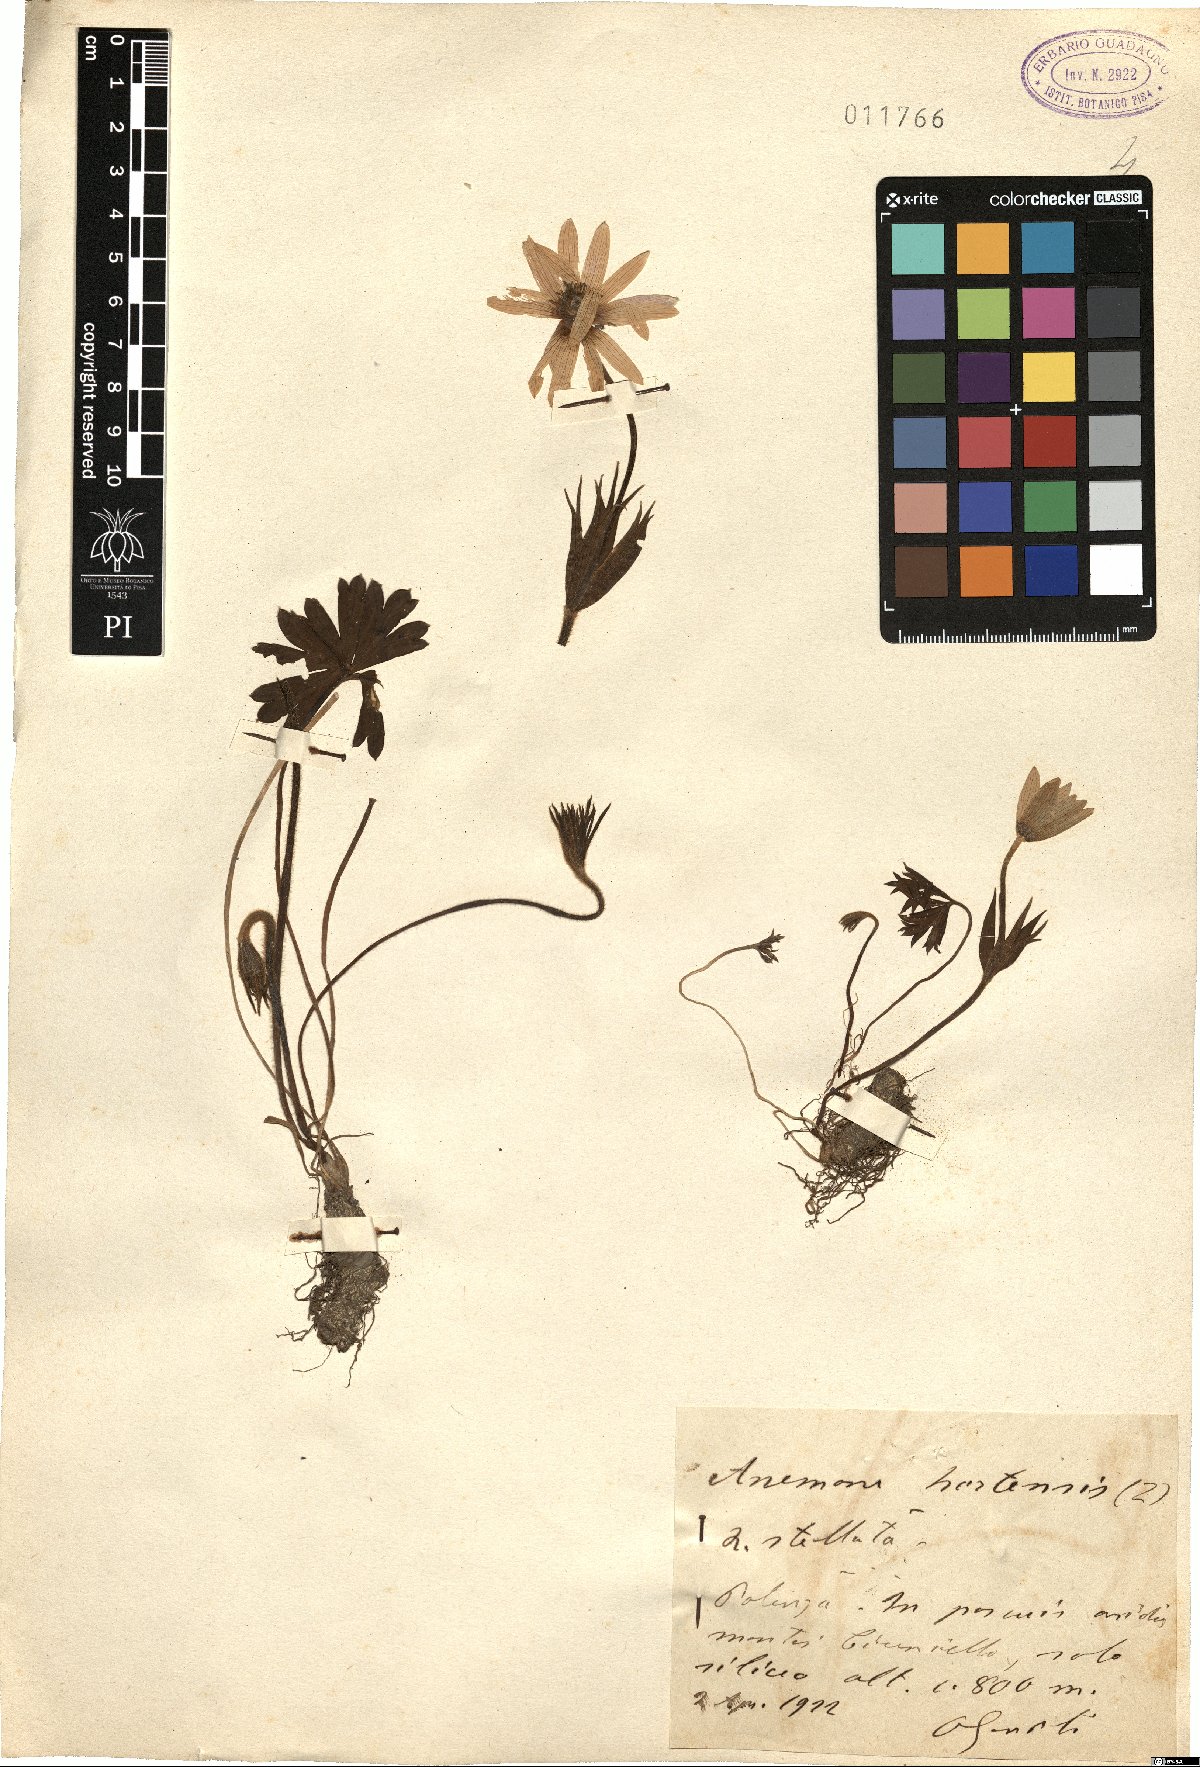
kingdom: Plantae
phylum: Tracheophyta
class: Magnoliopsida
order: Ranunculales
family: Ranunculaceae
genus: Anemone
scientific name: Anemone hortensis
